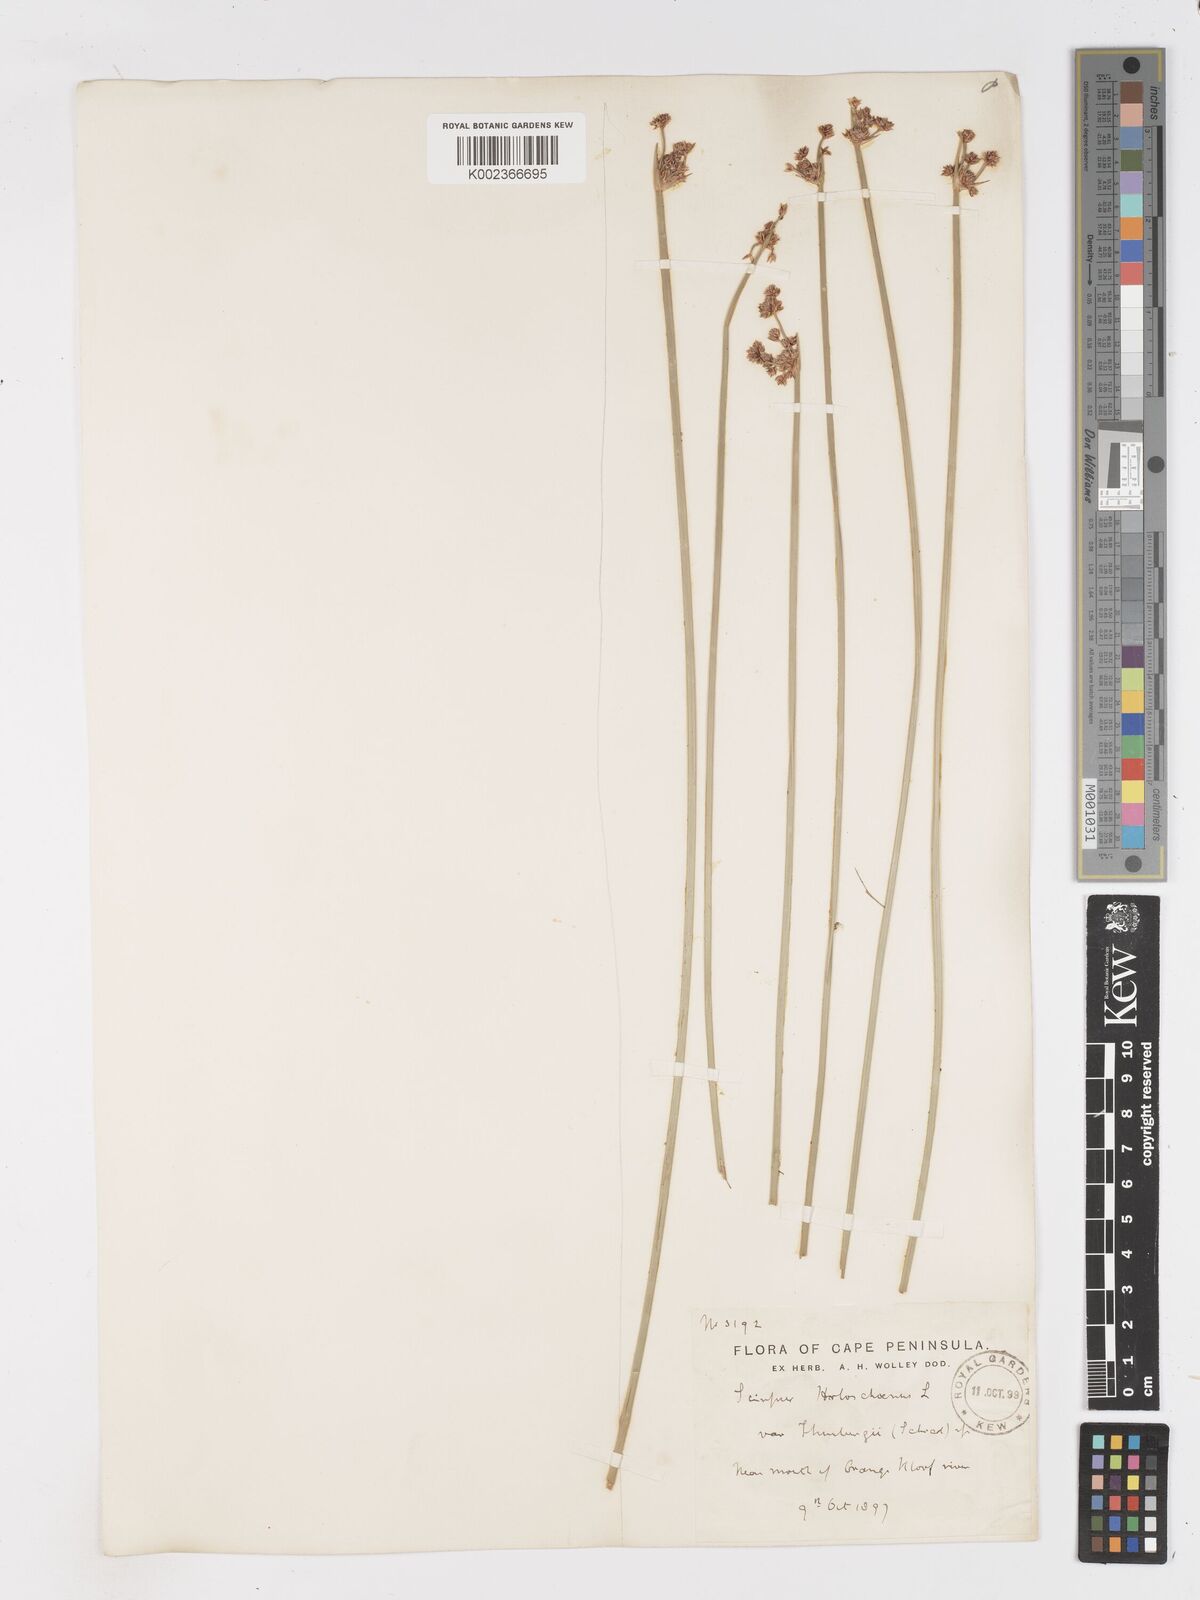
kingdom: Plantae
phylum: Tracheophyta
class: Liliopsida
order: Poales
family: Cyperaceae
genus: Scirpoides
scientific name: Scirpoides holoschoenus
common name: Round-headed club-rush
